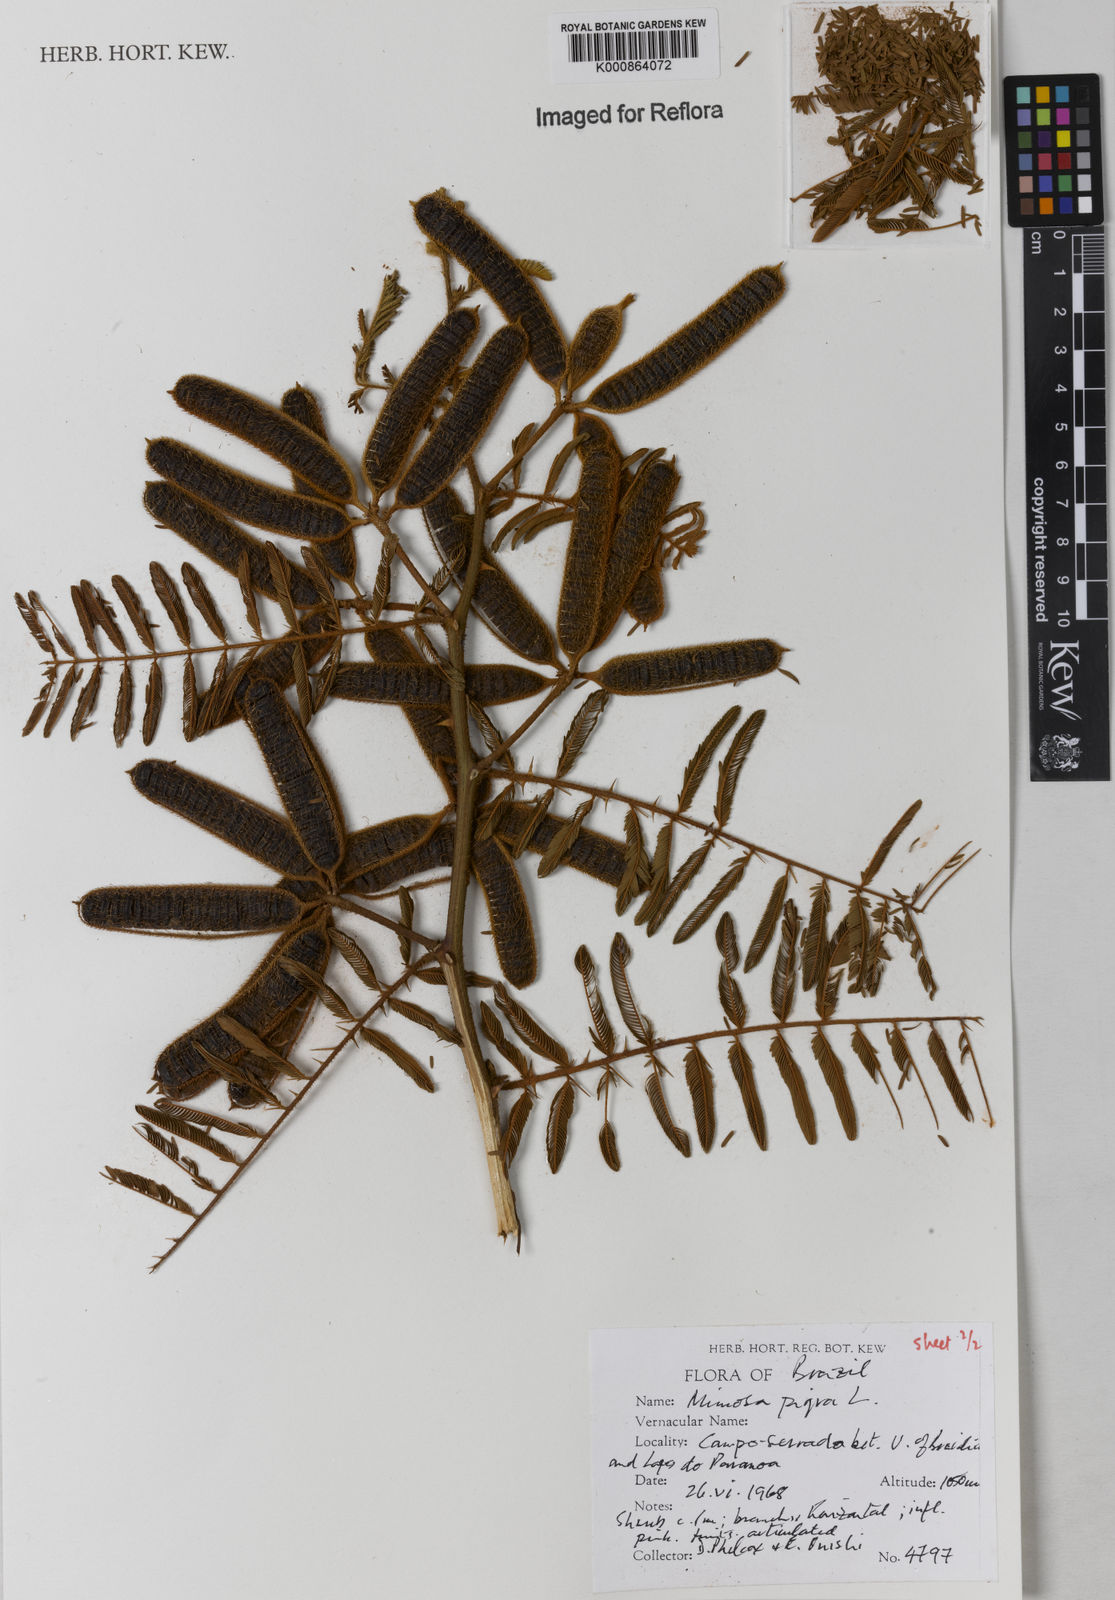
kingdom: Plantae
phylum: Tracheophyta
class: Magnoliopsida
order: Fabales
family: Fabaceae
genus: Mimosa
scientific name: Mimosa pigra
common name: Black mimosa
